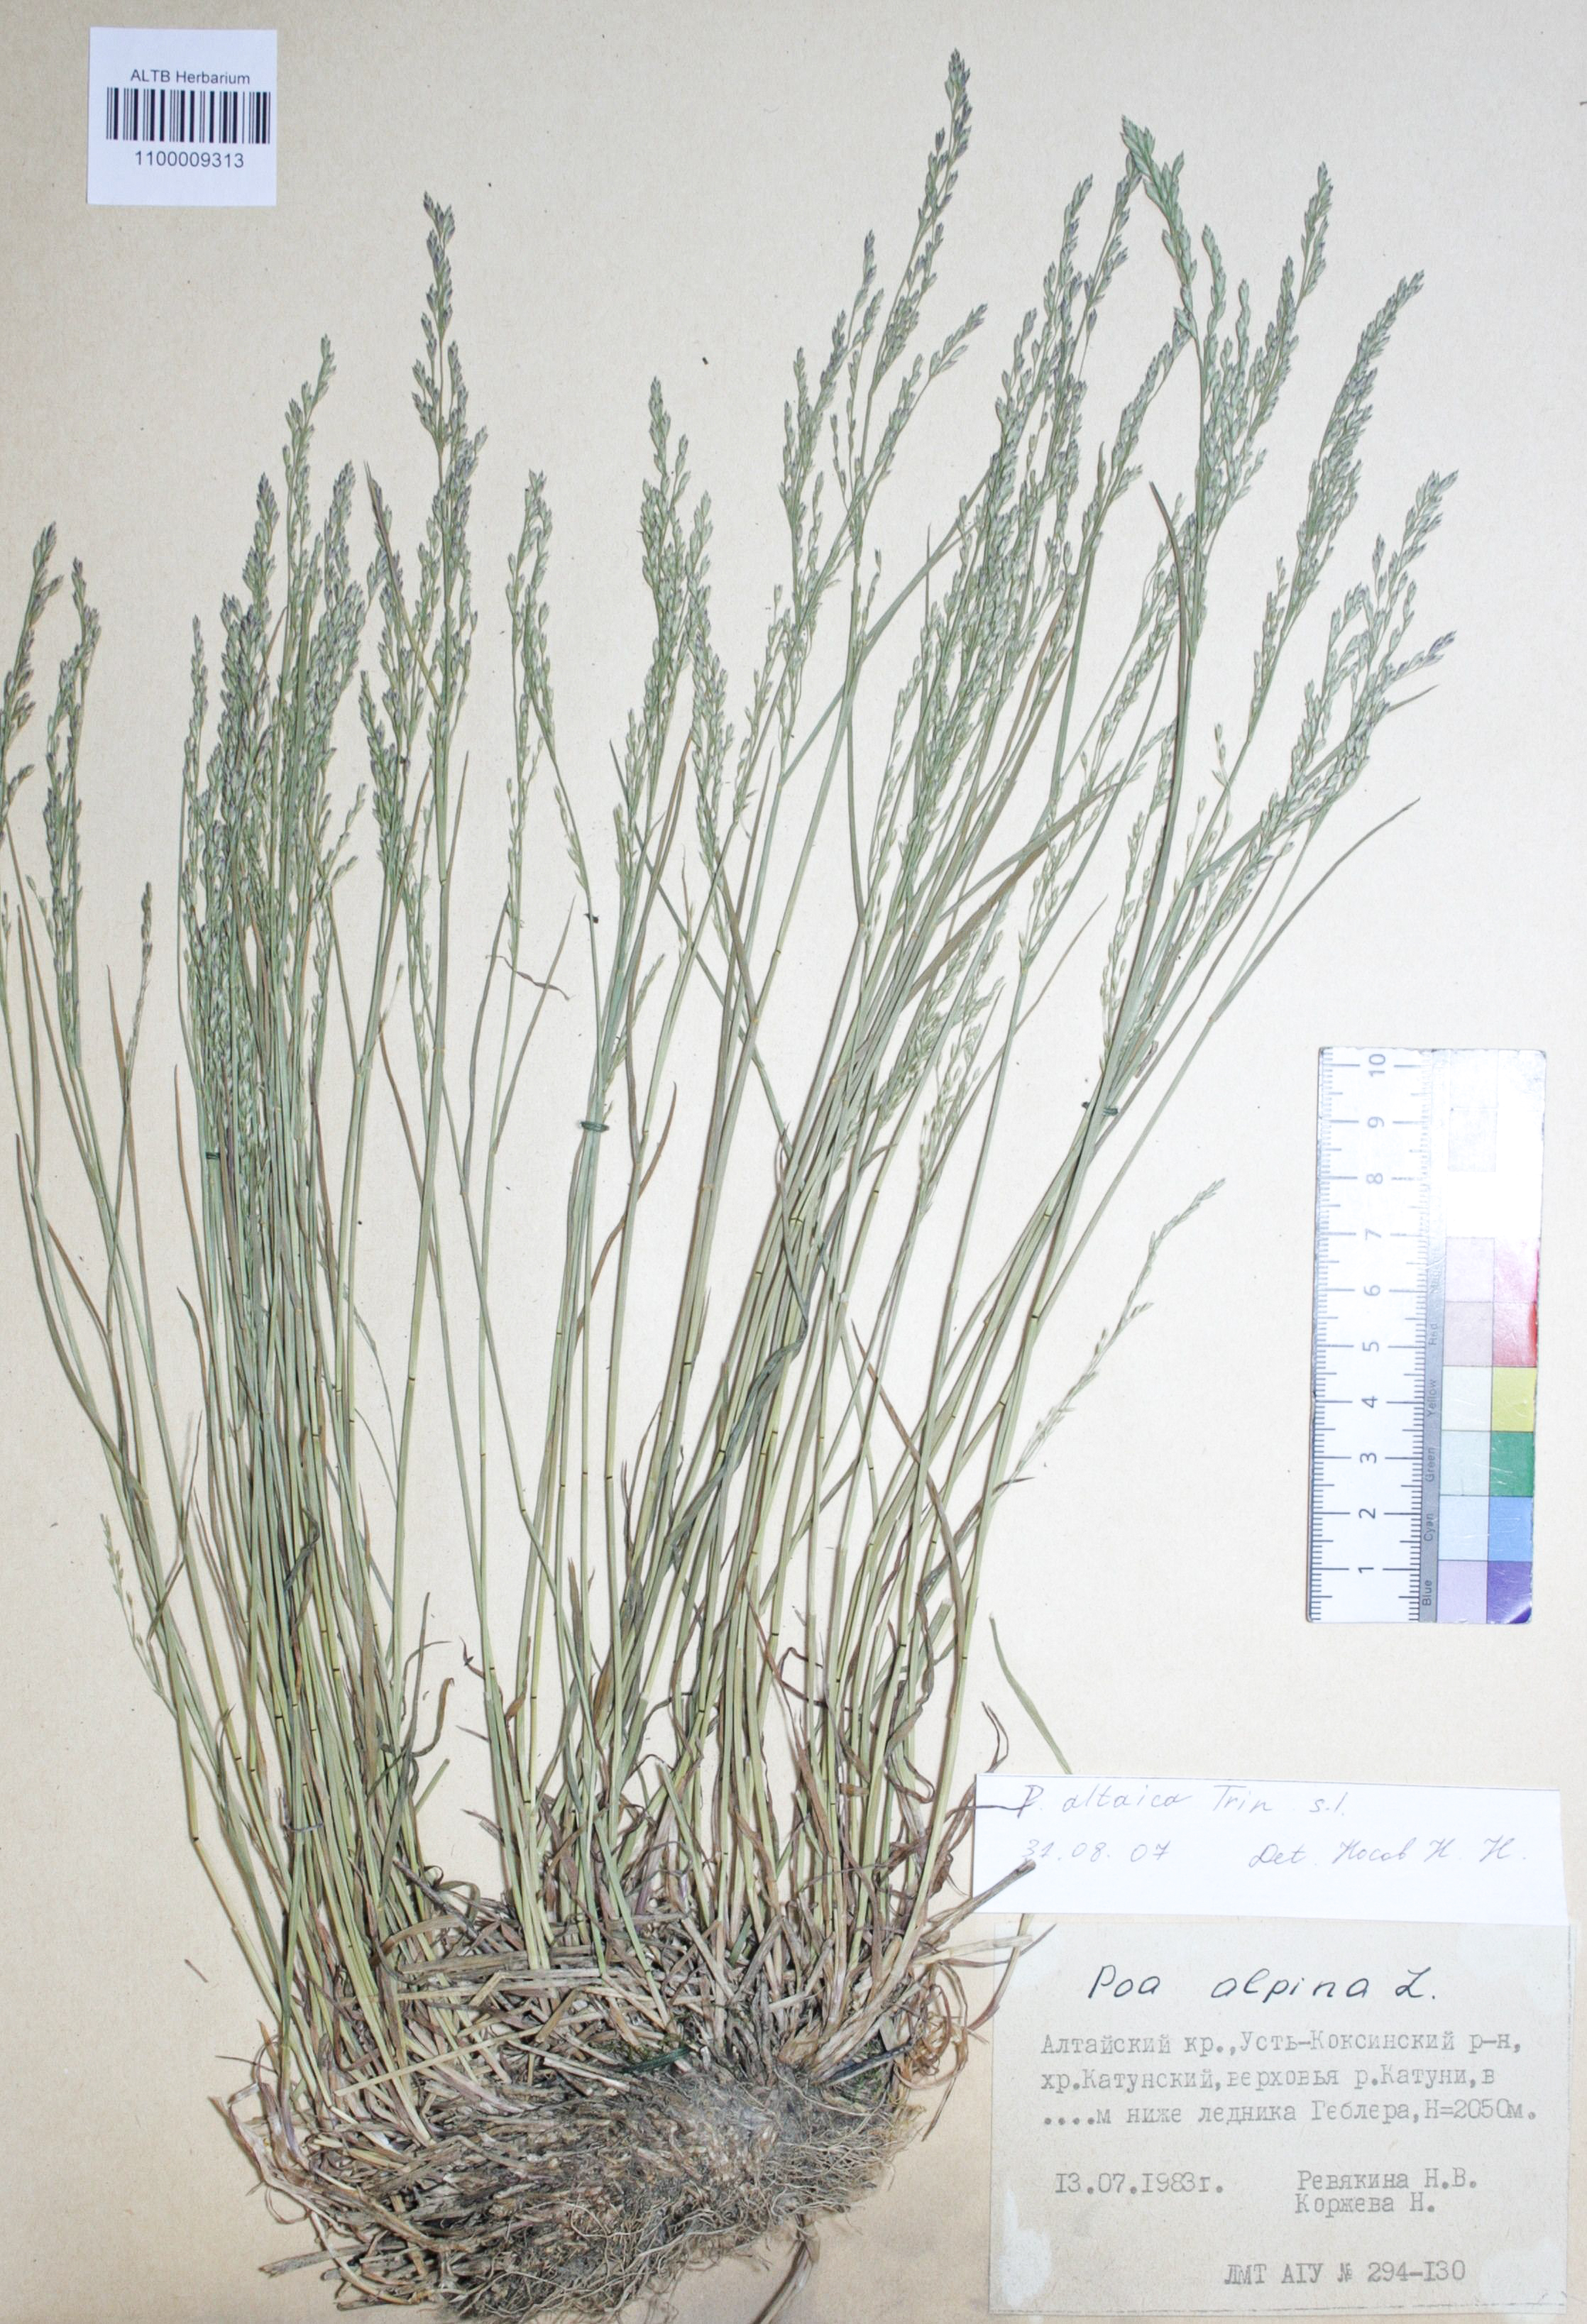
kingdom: Plantae
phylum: Tracheophyta
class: Liliopsida
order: Poales
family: Poaceae
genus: Poa
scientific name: Poa alpina
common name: Alpine bluegrass
